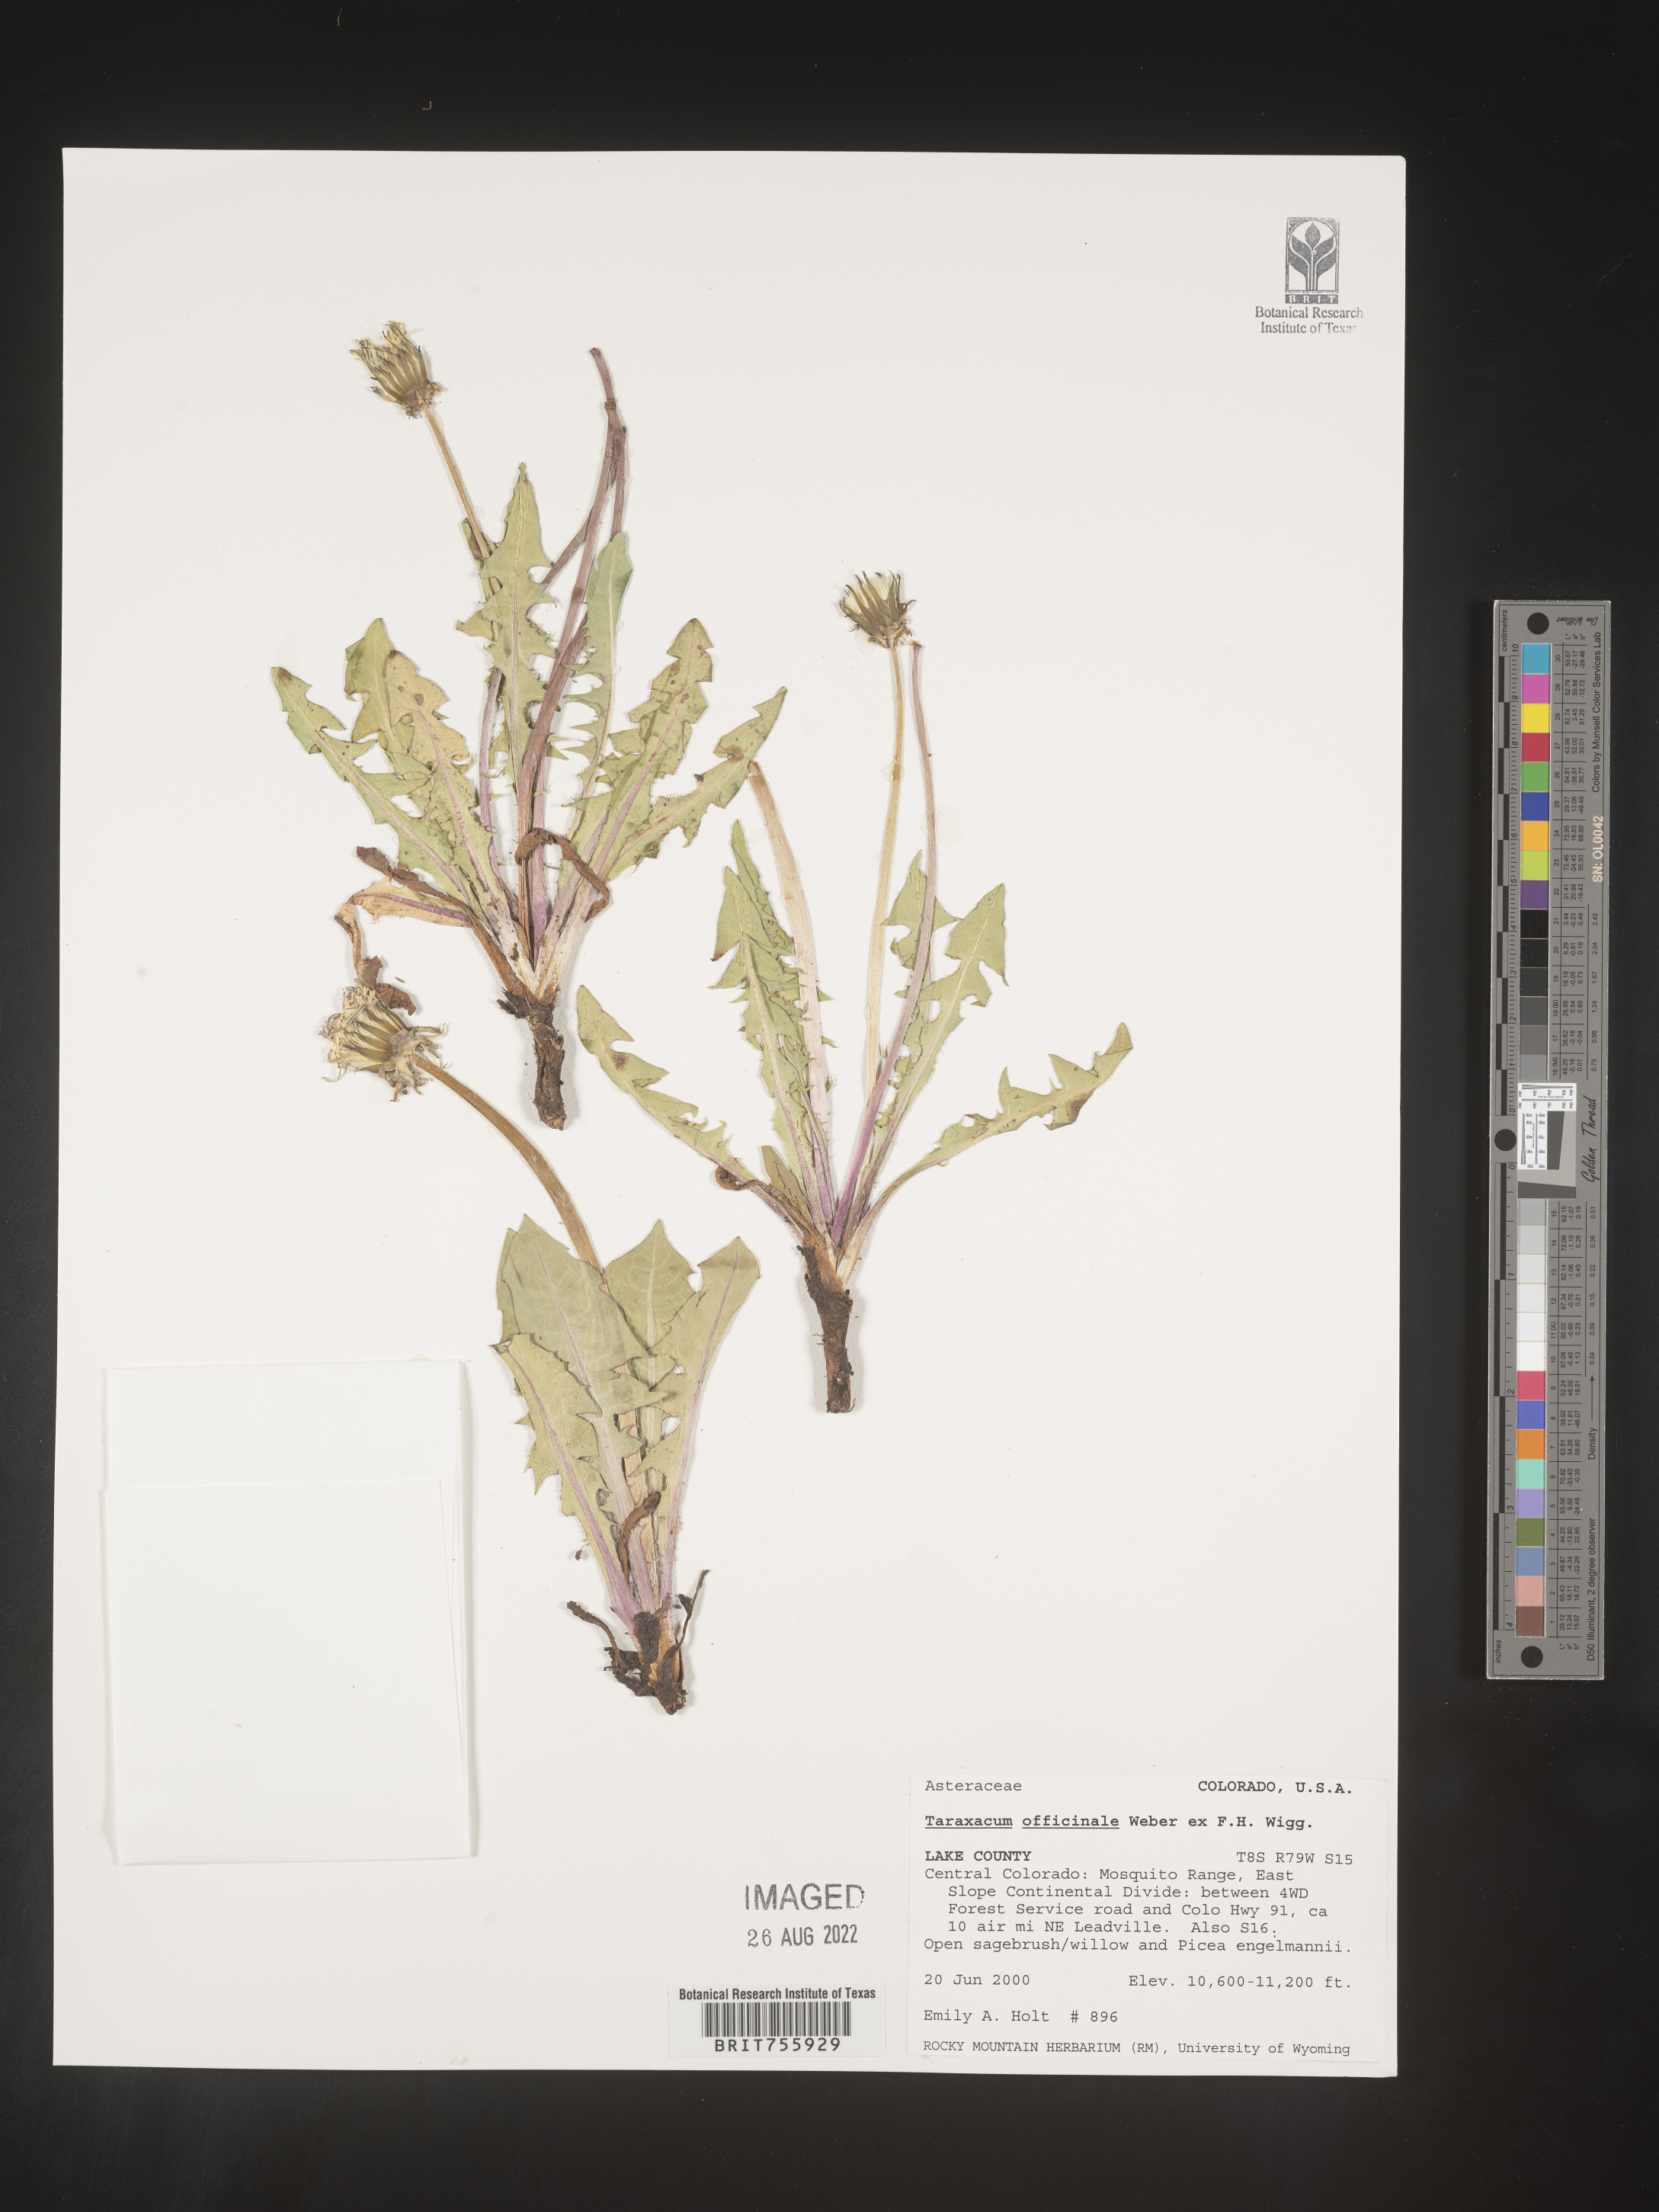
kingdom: Plantae
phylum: Tracheophyta
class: Magnoliopsida
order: Asterales
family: Asteraceae
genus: Taraxacum
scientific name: Taraxacum officinale
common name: Common dandelion
